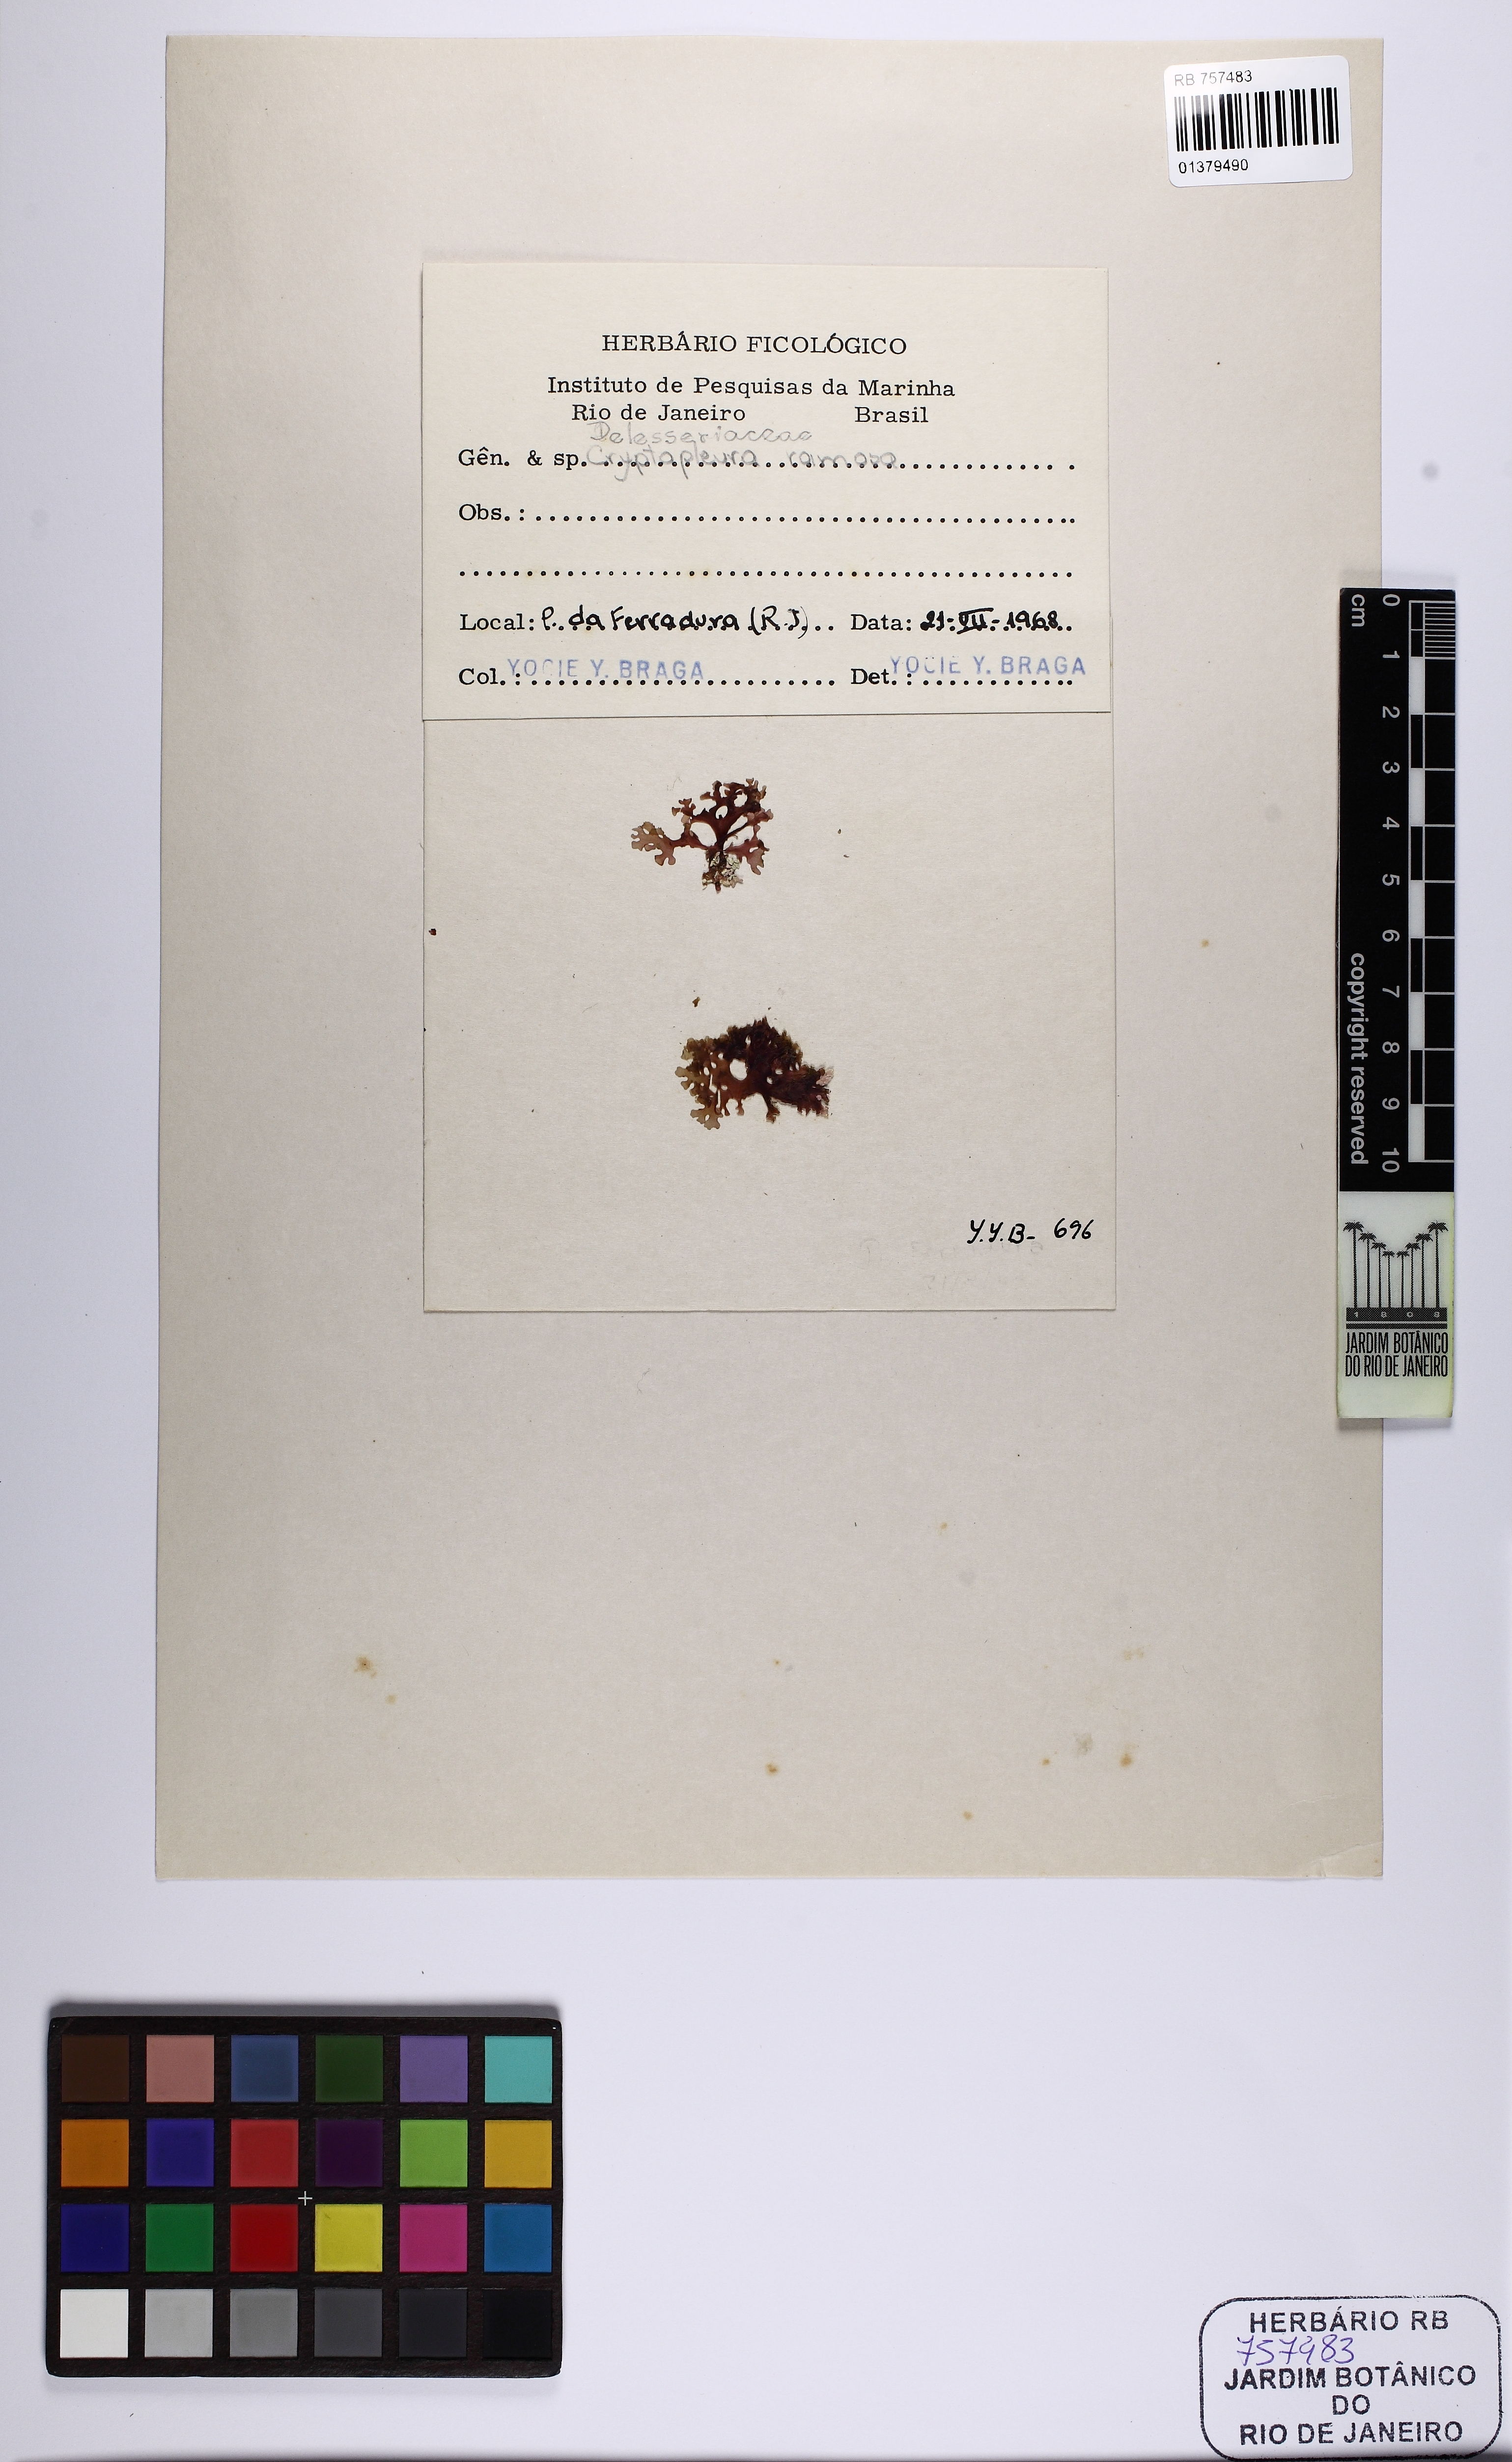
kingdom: Plantae
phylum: Rhodophyta
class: Florideophyceae
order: Ceramiales
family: Delesseriaceae
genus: Cryptopleura
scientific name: Cryptopleura ramosa
